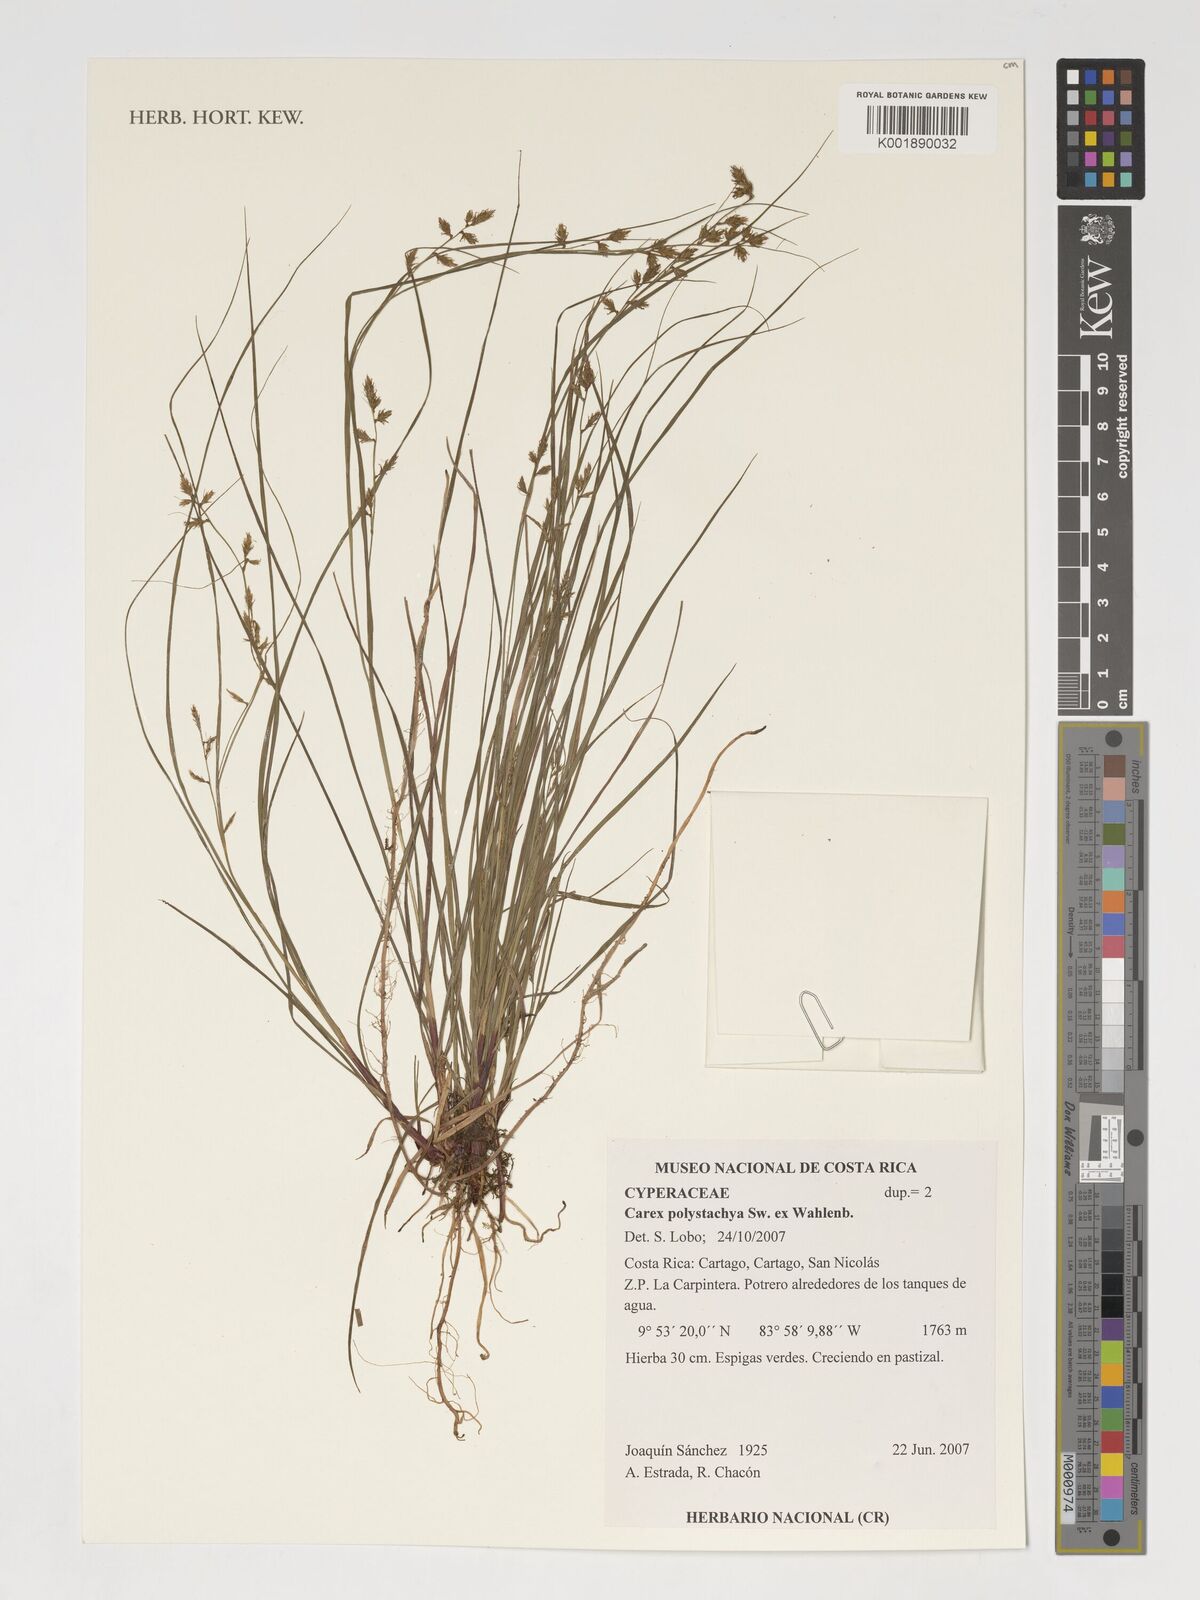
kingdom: Plantae
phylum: Tracheophyta
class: Liliopsida
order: Poales
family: Cyperaceae
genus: Carex
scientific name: Carex polystachya
